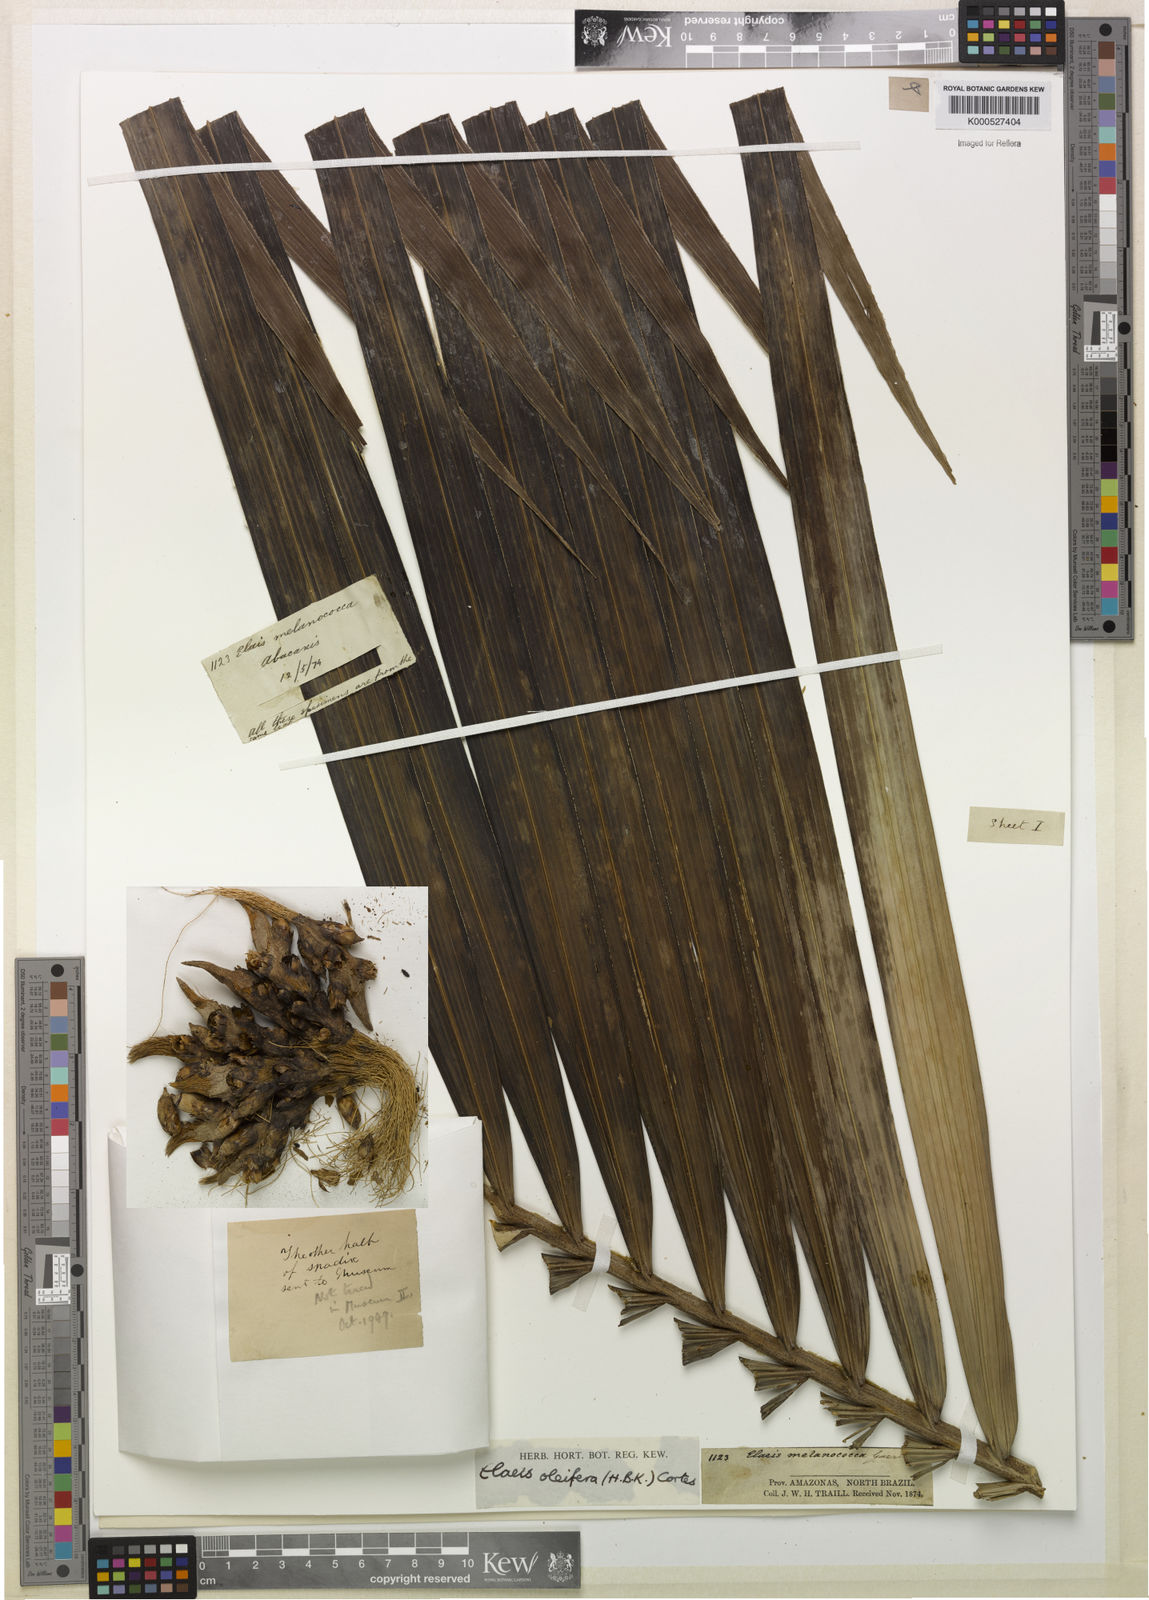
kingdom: Plantae
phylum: Tracheophyta
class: Liliopsida
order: Arecales
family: Arecaceae
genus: Elaeis
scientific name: Elaeis oleifera
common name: American oil palm
